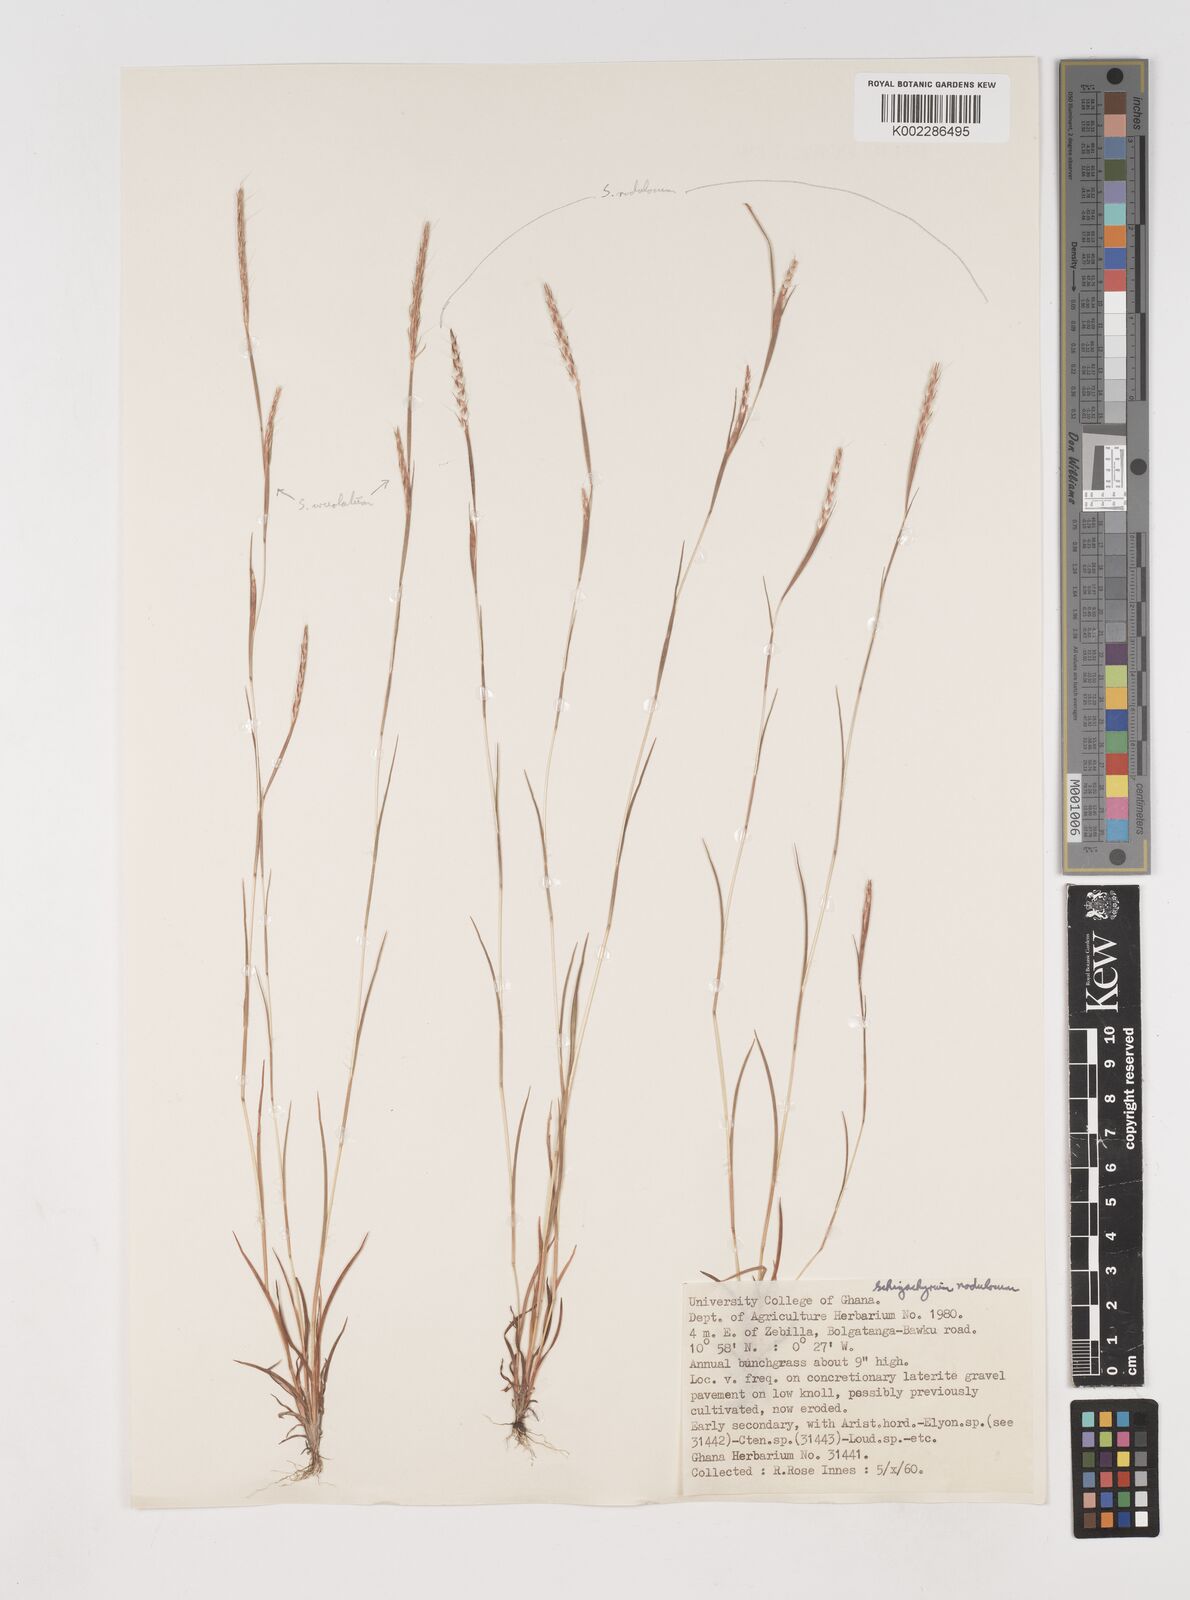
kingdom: Plantae
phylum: Tracheophyta
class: Liliopsida
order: Poales
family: Poaceae
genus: Schizachyrium
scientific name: Schizachyrium nodulosum
